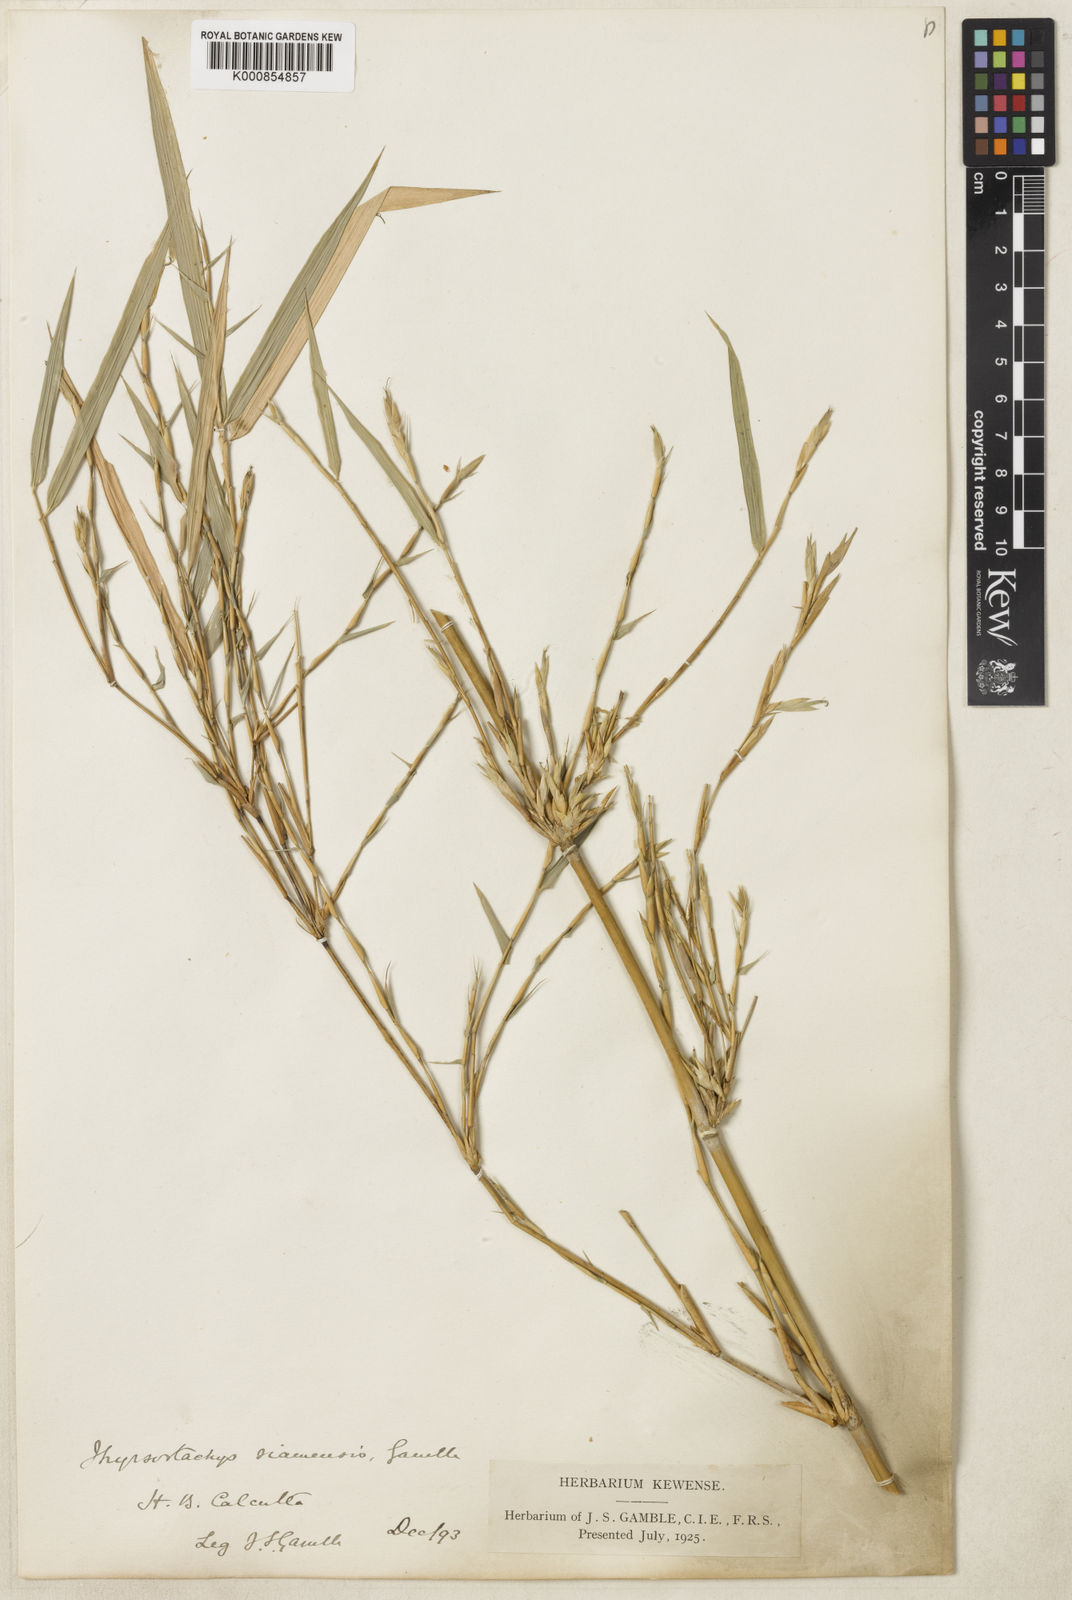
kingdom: Plantae
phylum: Tracheophyta
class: Liliopsida
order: Poales
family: Poaceae
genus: Thyrsostachys
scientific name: Thyrsostachys siamensis
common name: Thailand bamboo
